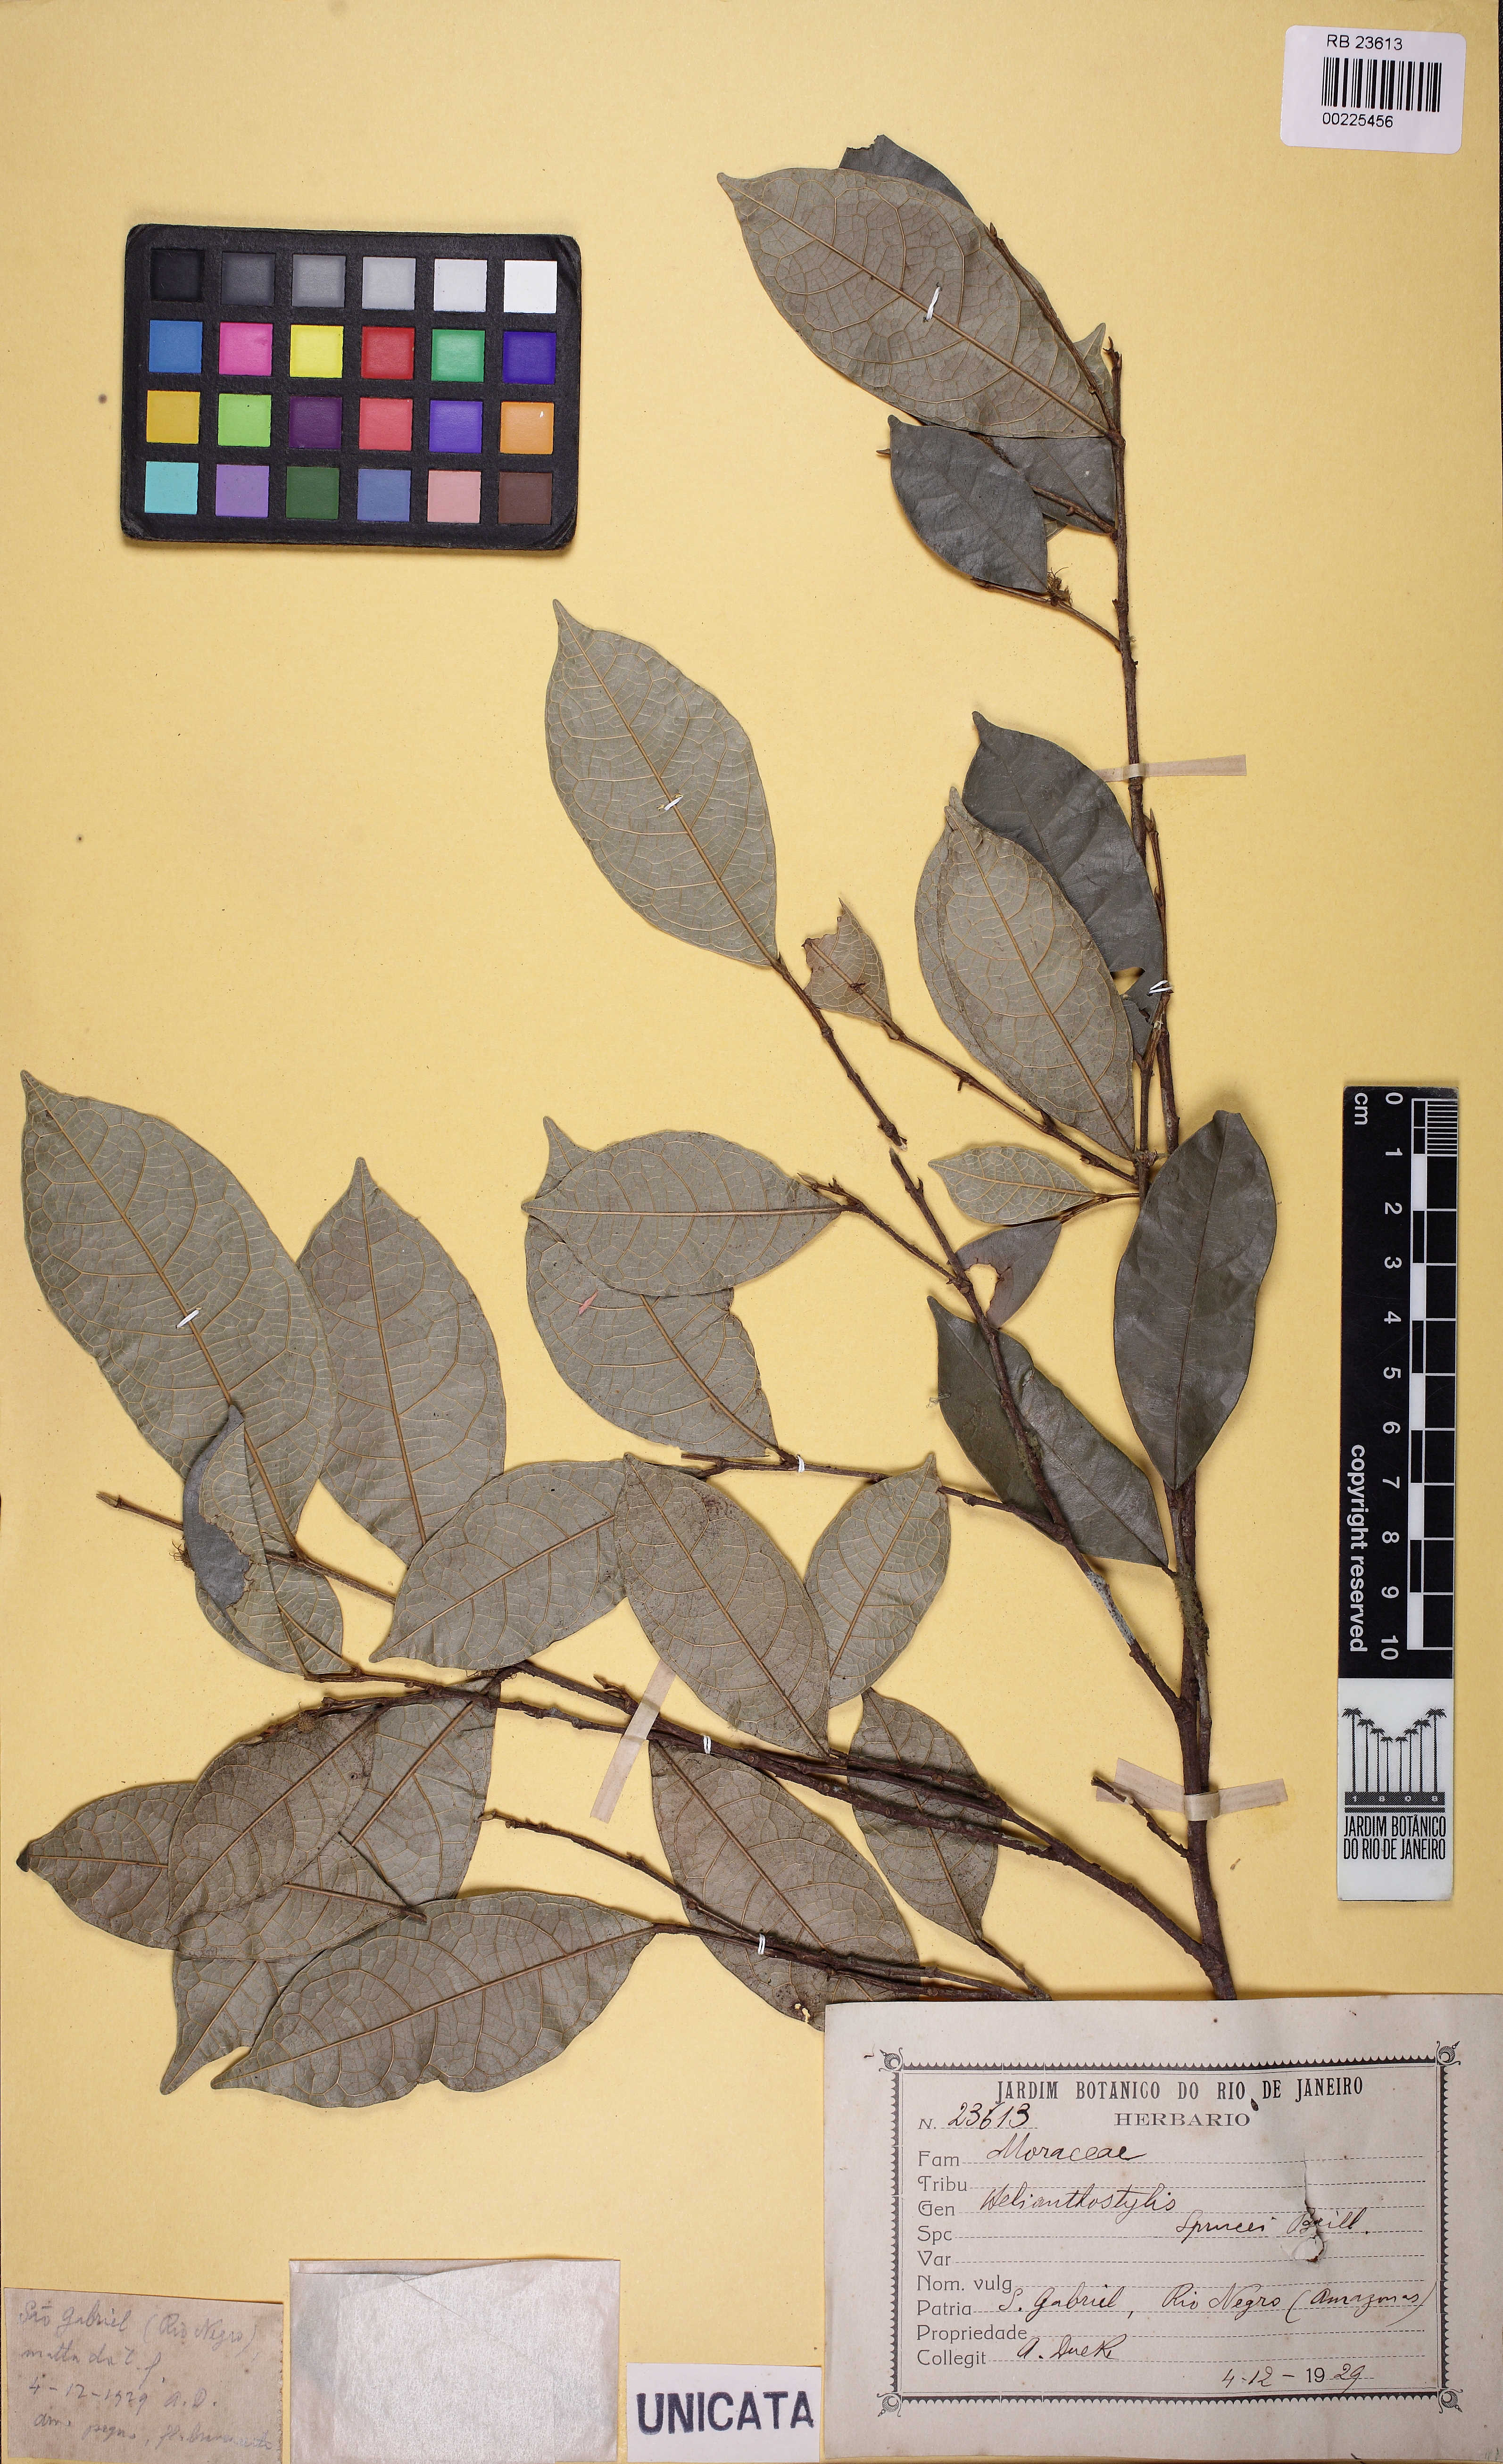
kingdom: Plantae
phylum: Tracheophyta
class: Magnoliopsida
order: Rosales
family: Moraceae
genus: Brosimum
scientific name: Brosimum sprucei
